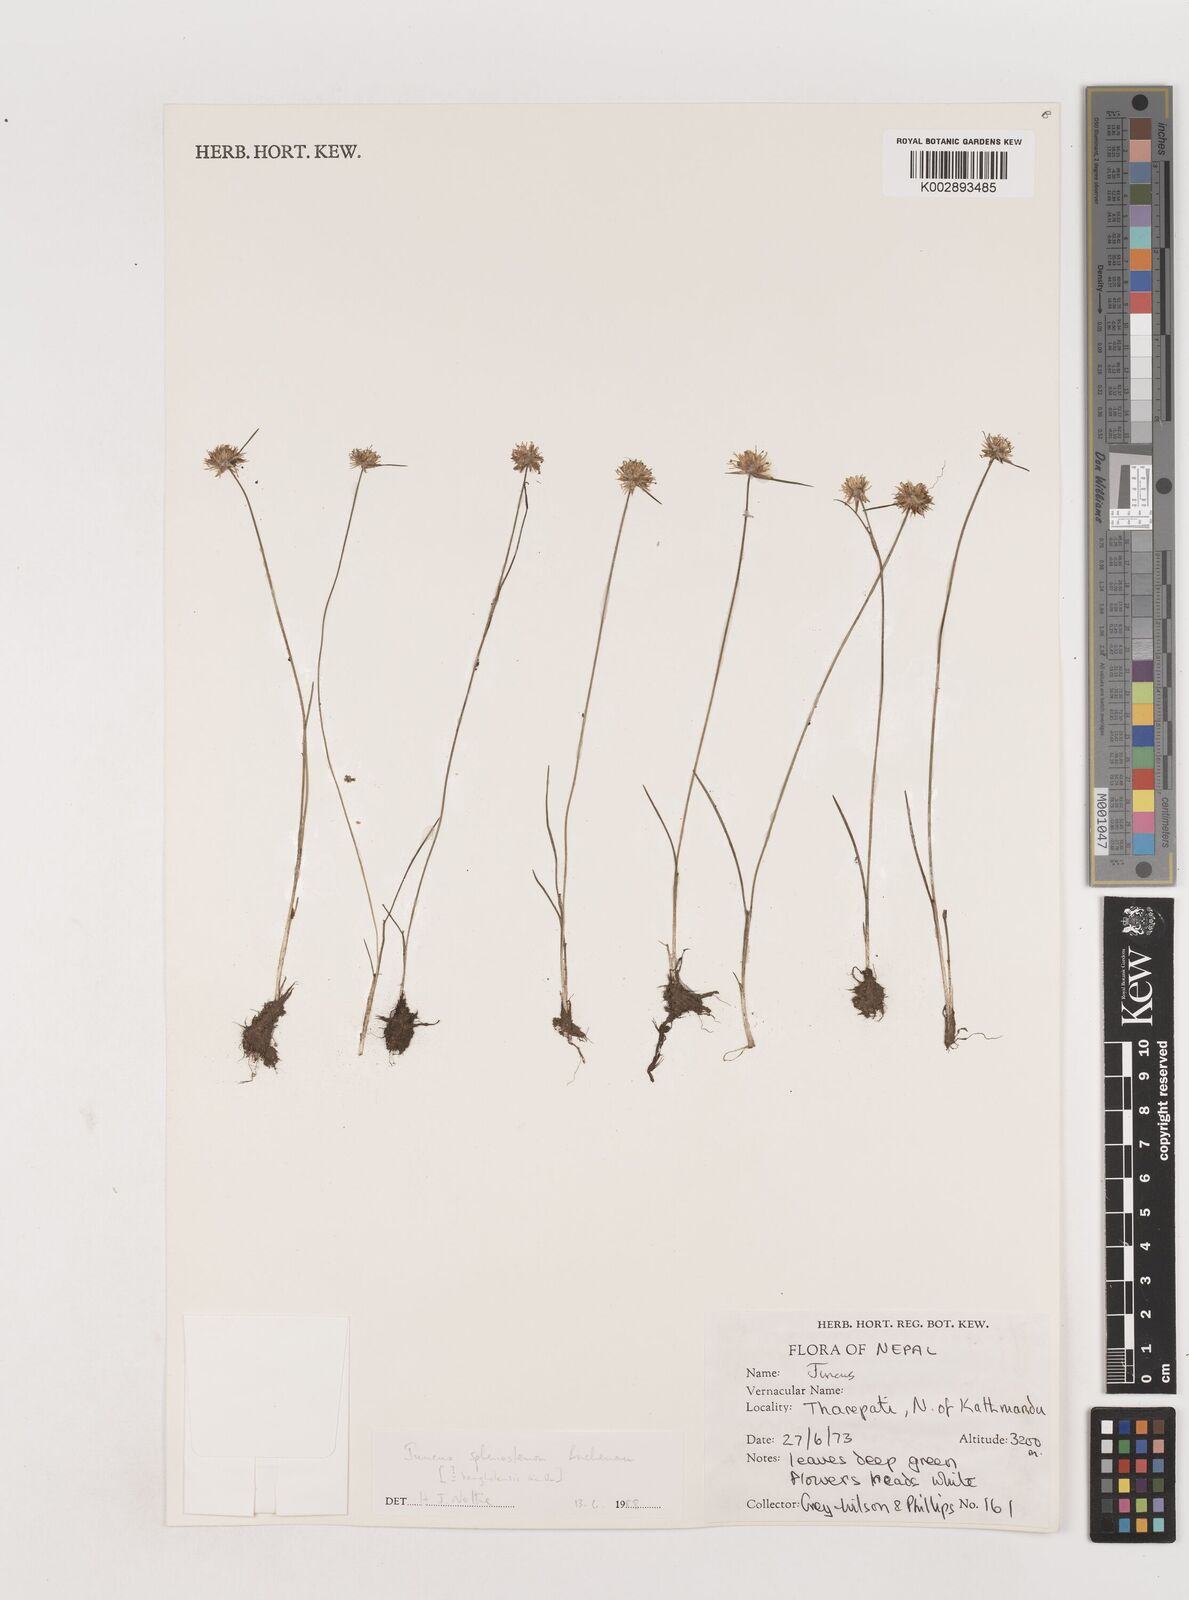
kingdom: Plantae
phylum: Tracheophyta
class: Liliopsida
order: Poales
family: Juncaceae
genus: Juncus
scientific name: Juncus benghalensis
